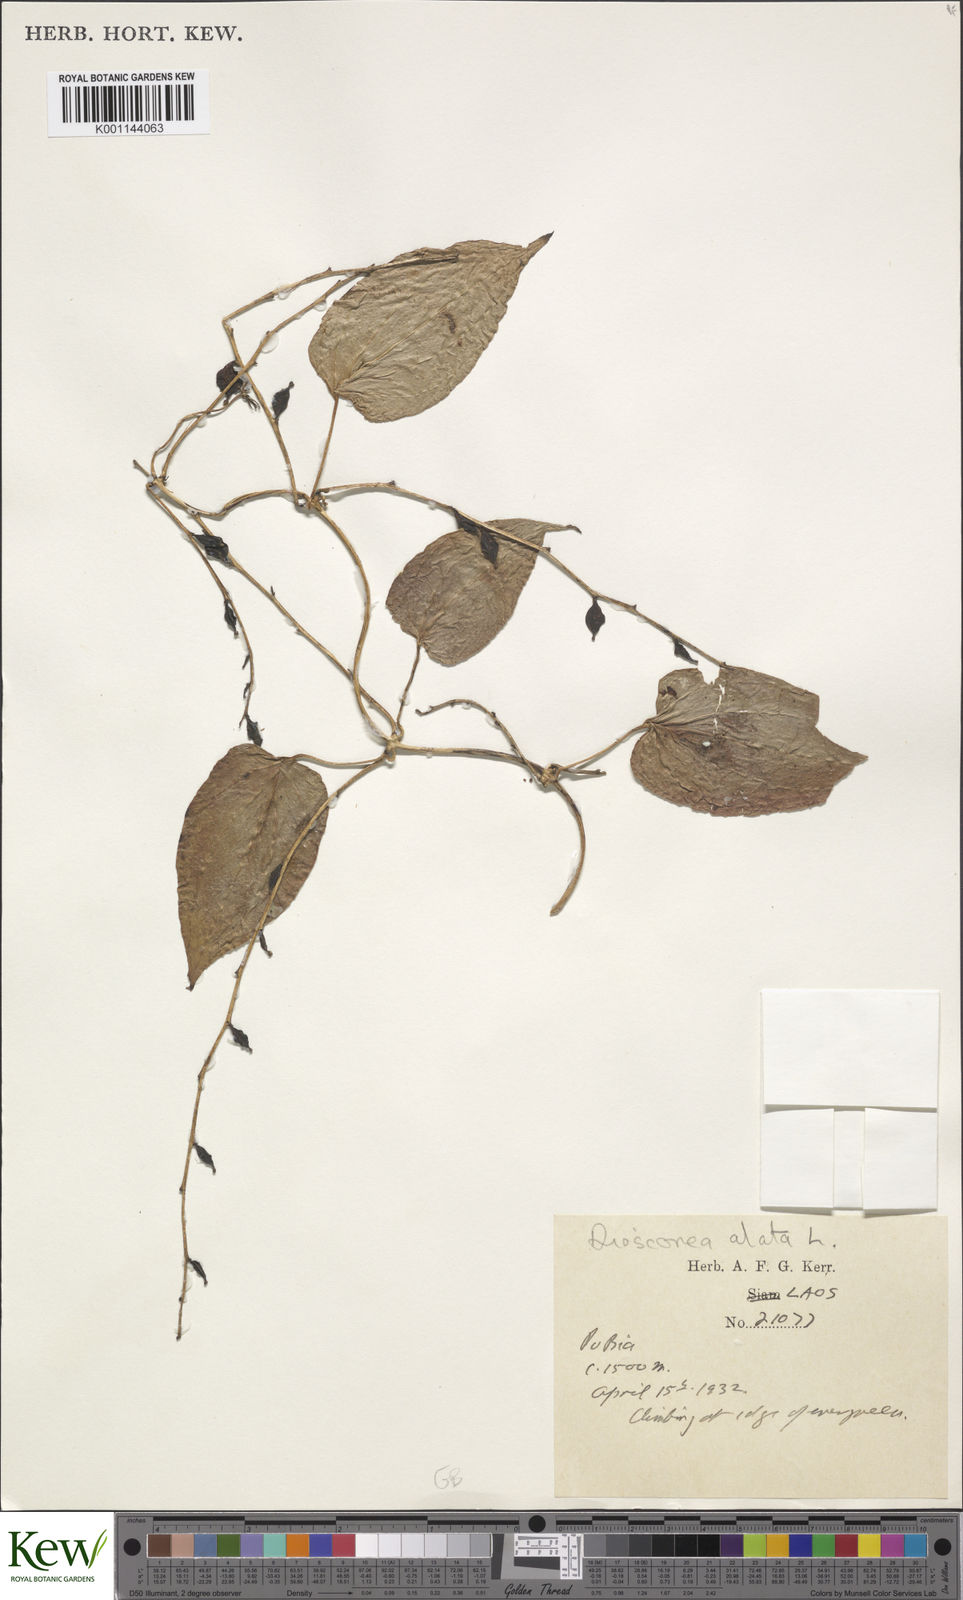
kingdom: Plantae
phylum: Tracheophyta
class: Liliopsida
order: Dioscoreales
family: Dioscoreaceae
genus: Dioscorea
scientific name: Dioscorea alata
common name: Water yam
